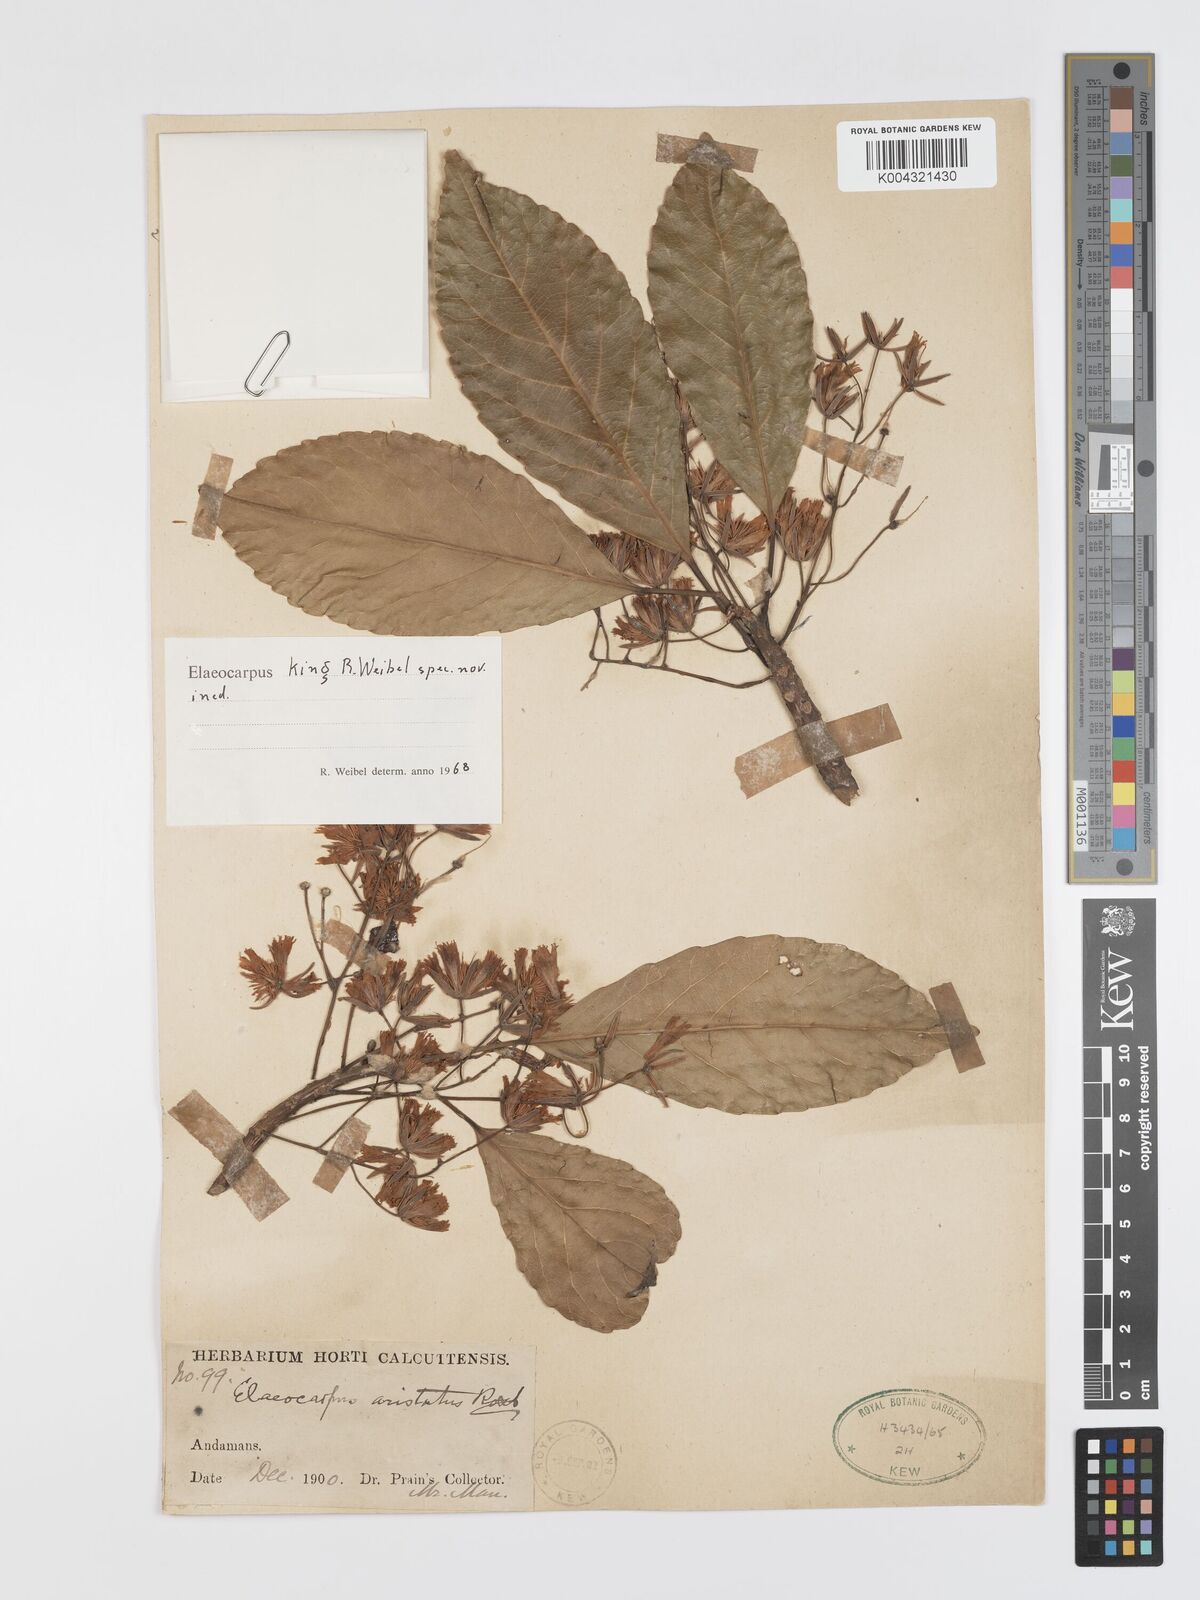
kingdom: Plantae
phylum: Tracheophyta
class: Magnoliopsida
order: Oxalidales
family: Elaeocarpaceae
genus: Elaeocarpus
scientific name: Elaeocarpus
